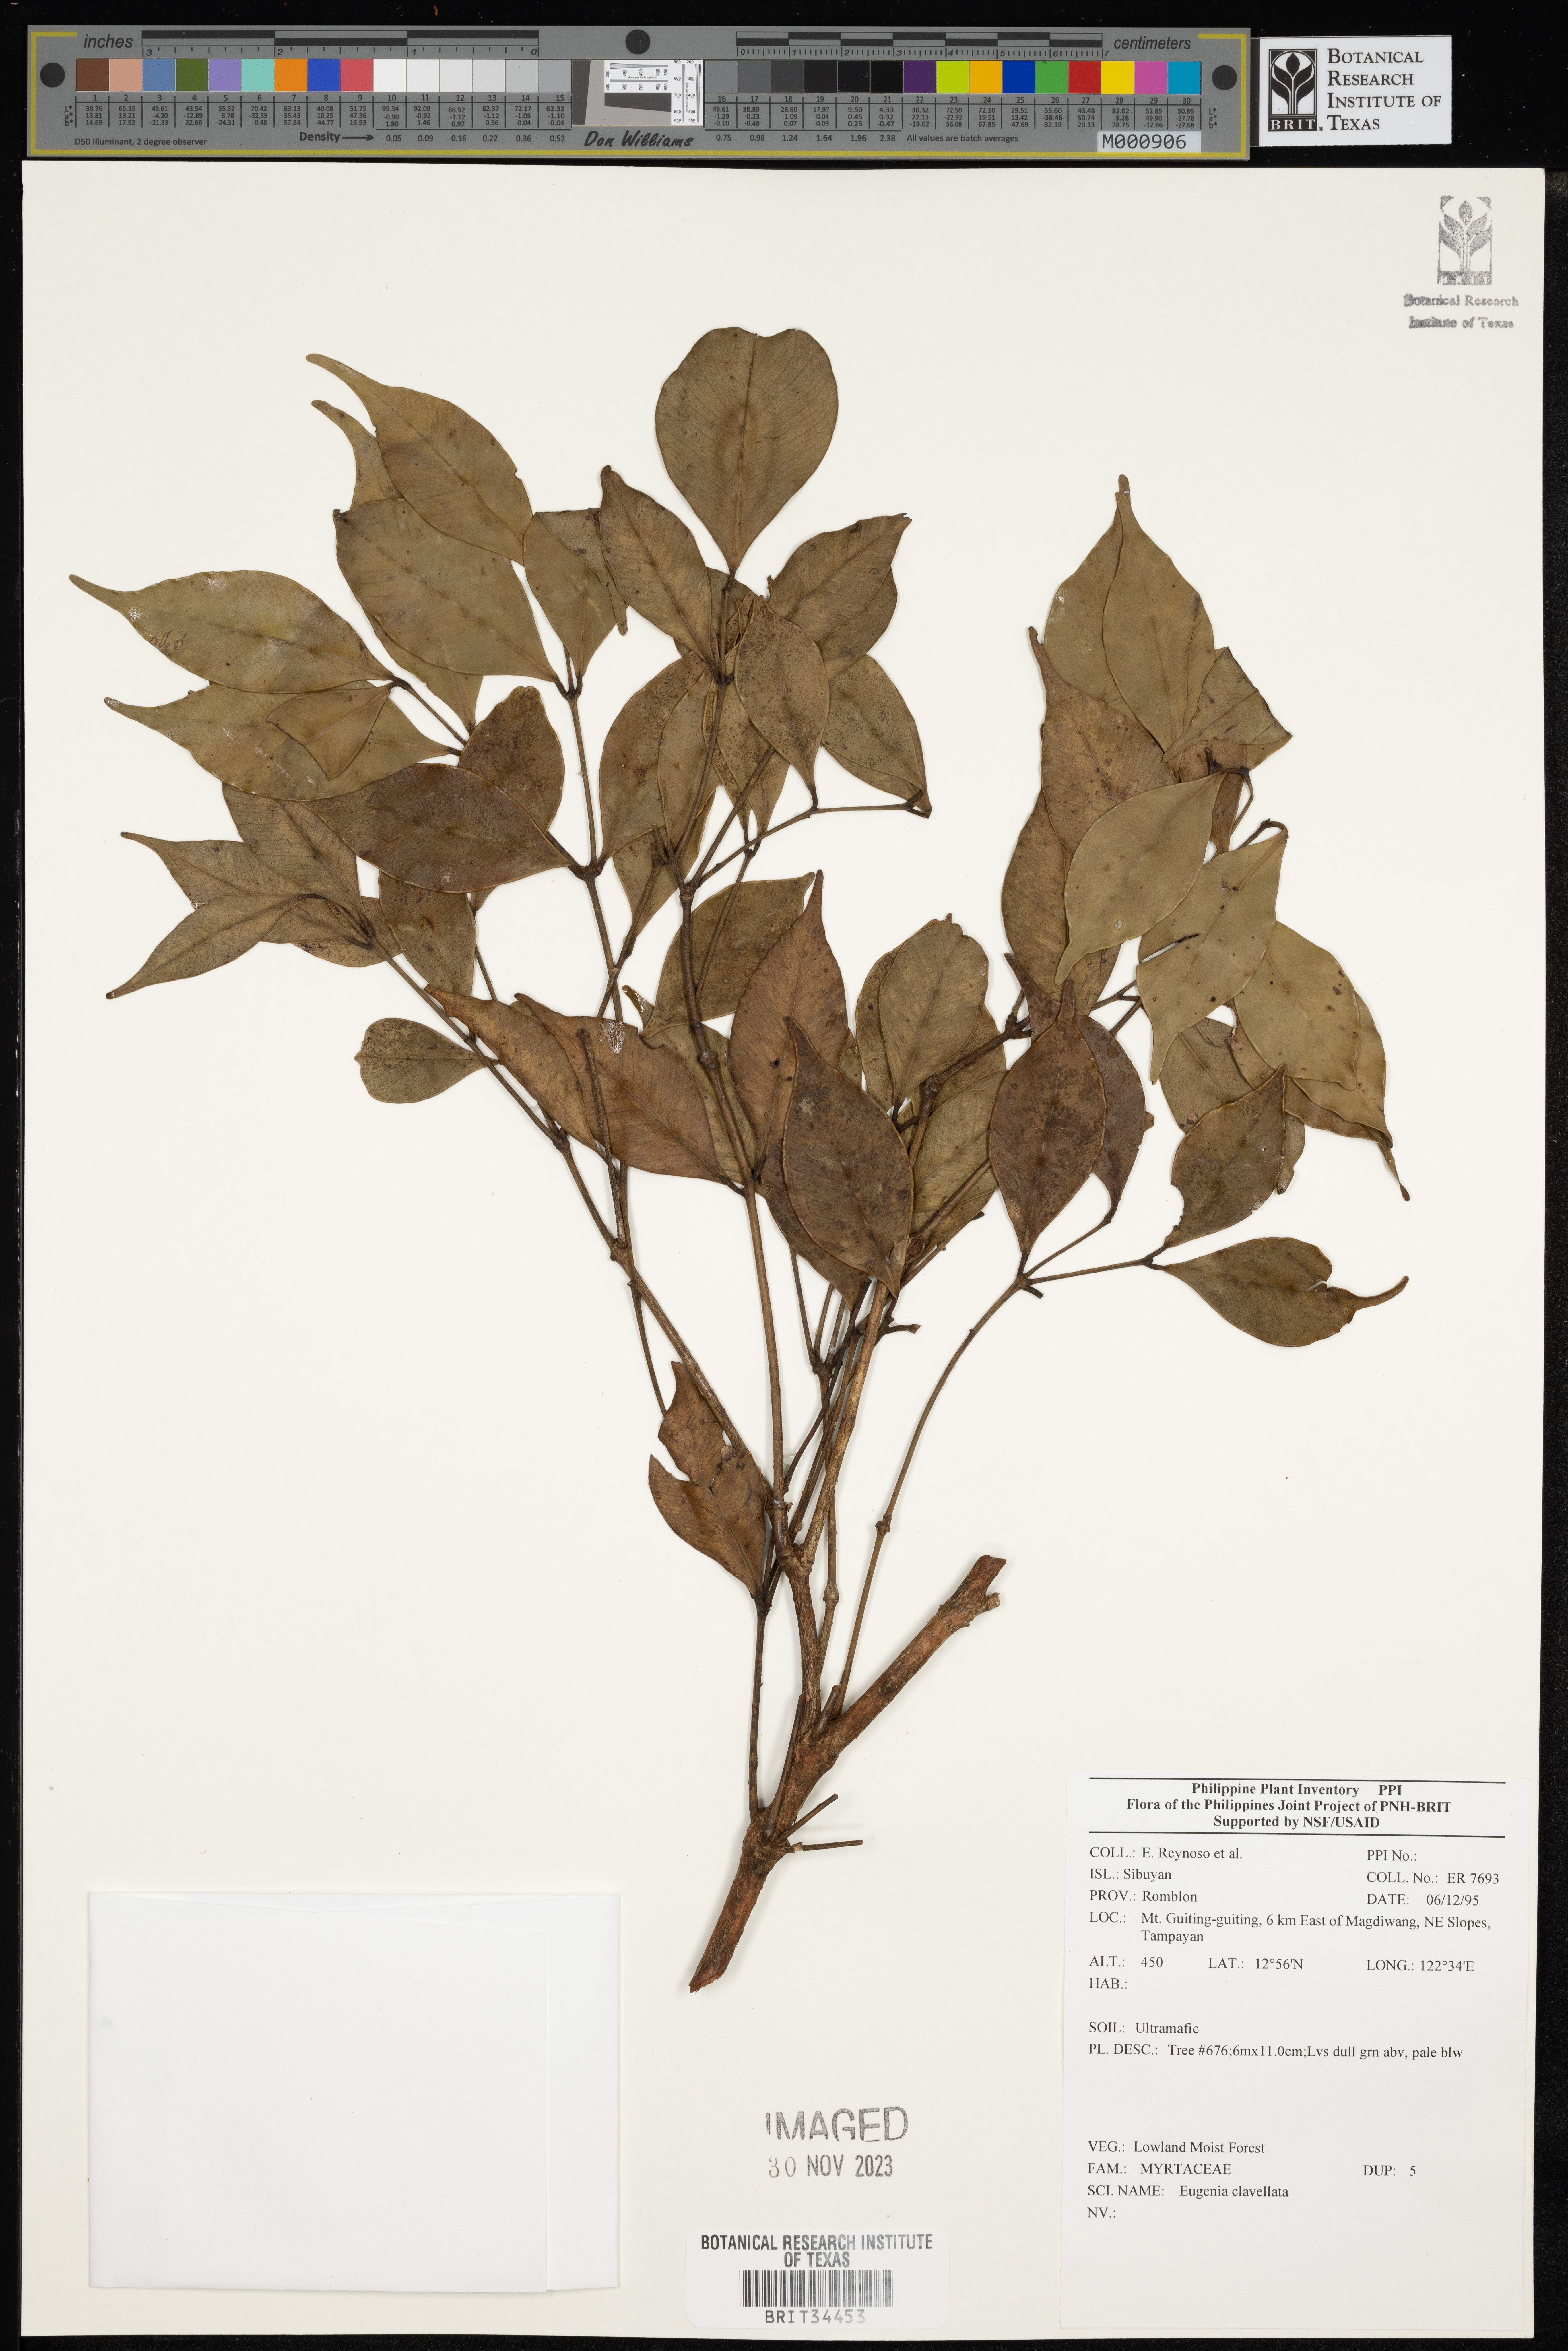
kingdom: Plantae
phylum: Tracheophyta
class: Magnoliopsida
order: Myrtales
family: Myrtaceae
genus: Eugenia
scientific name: Eugenia
